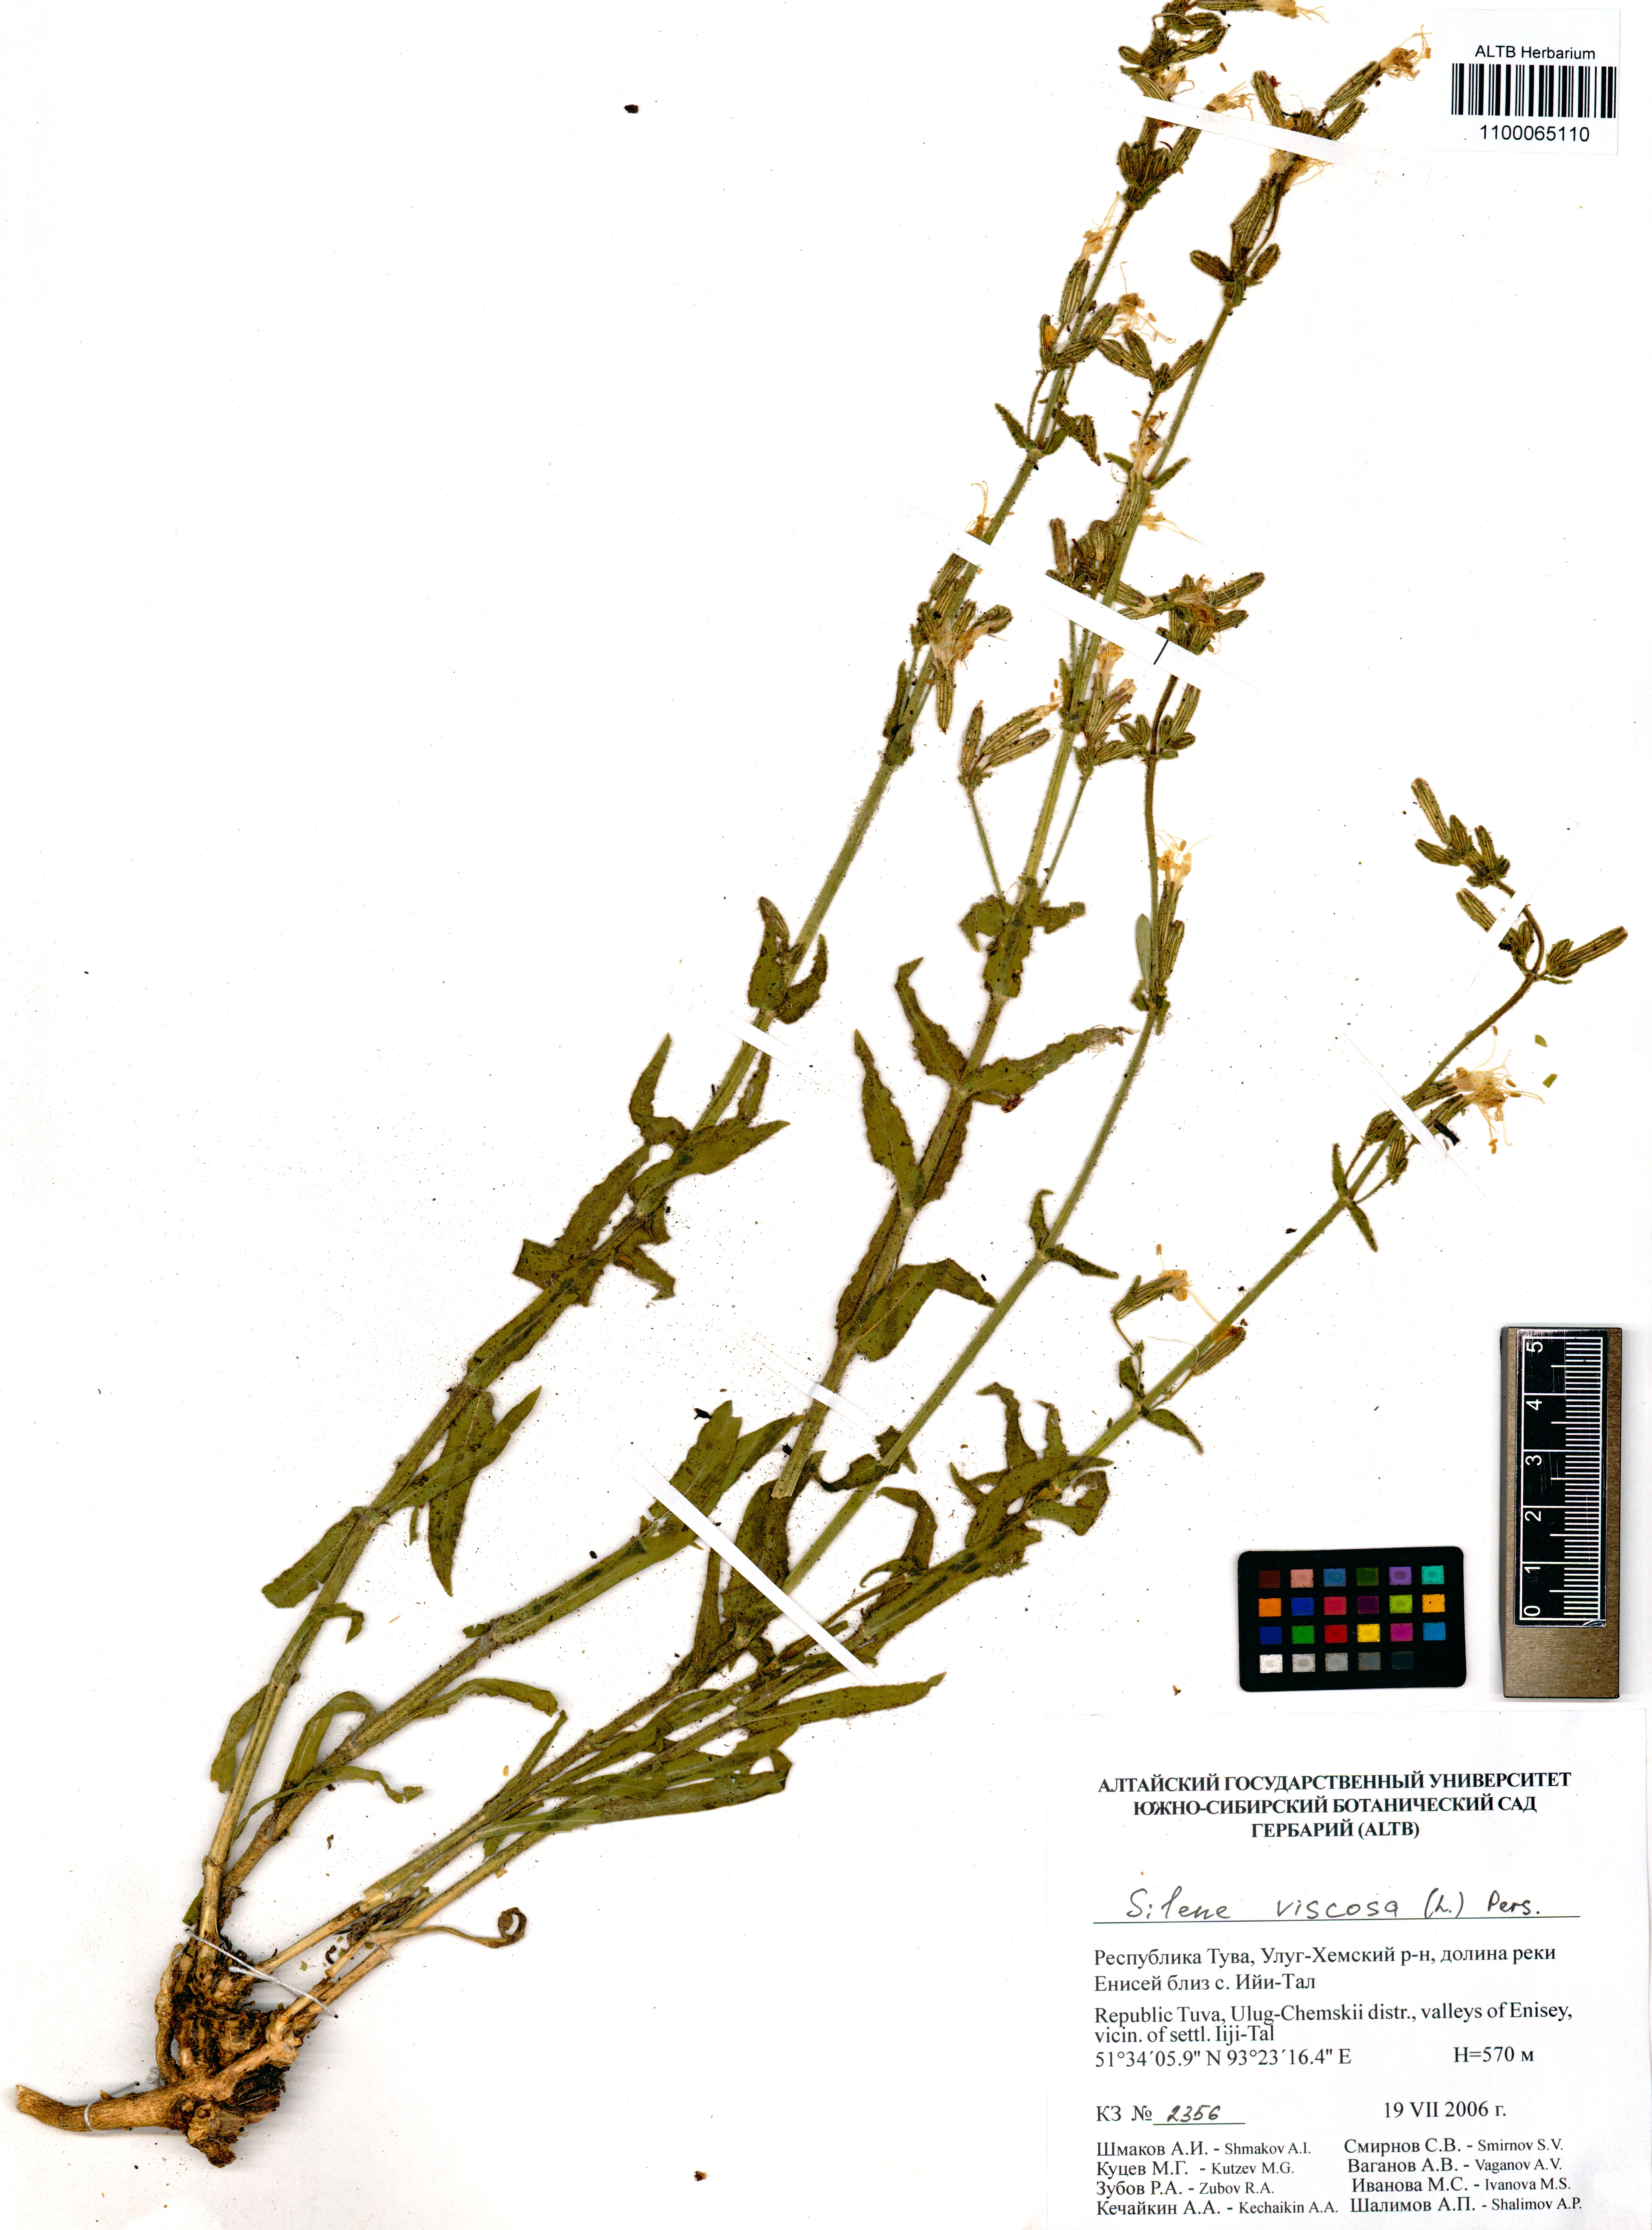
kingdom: Plantae
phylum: Tracheophyta
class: Magnoliopsida
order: Caryophyllales
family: Caryophyllaceae
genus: Silene
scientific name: Silene viscosa
